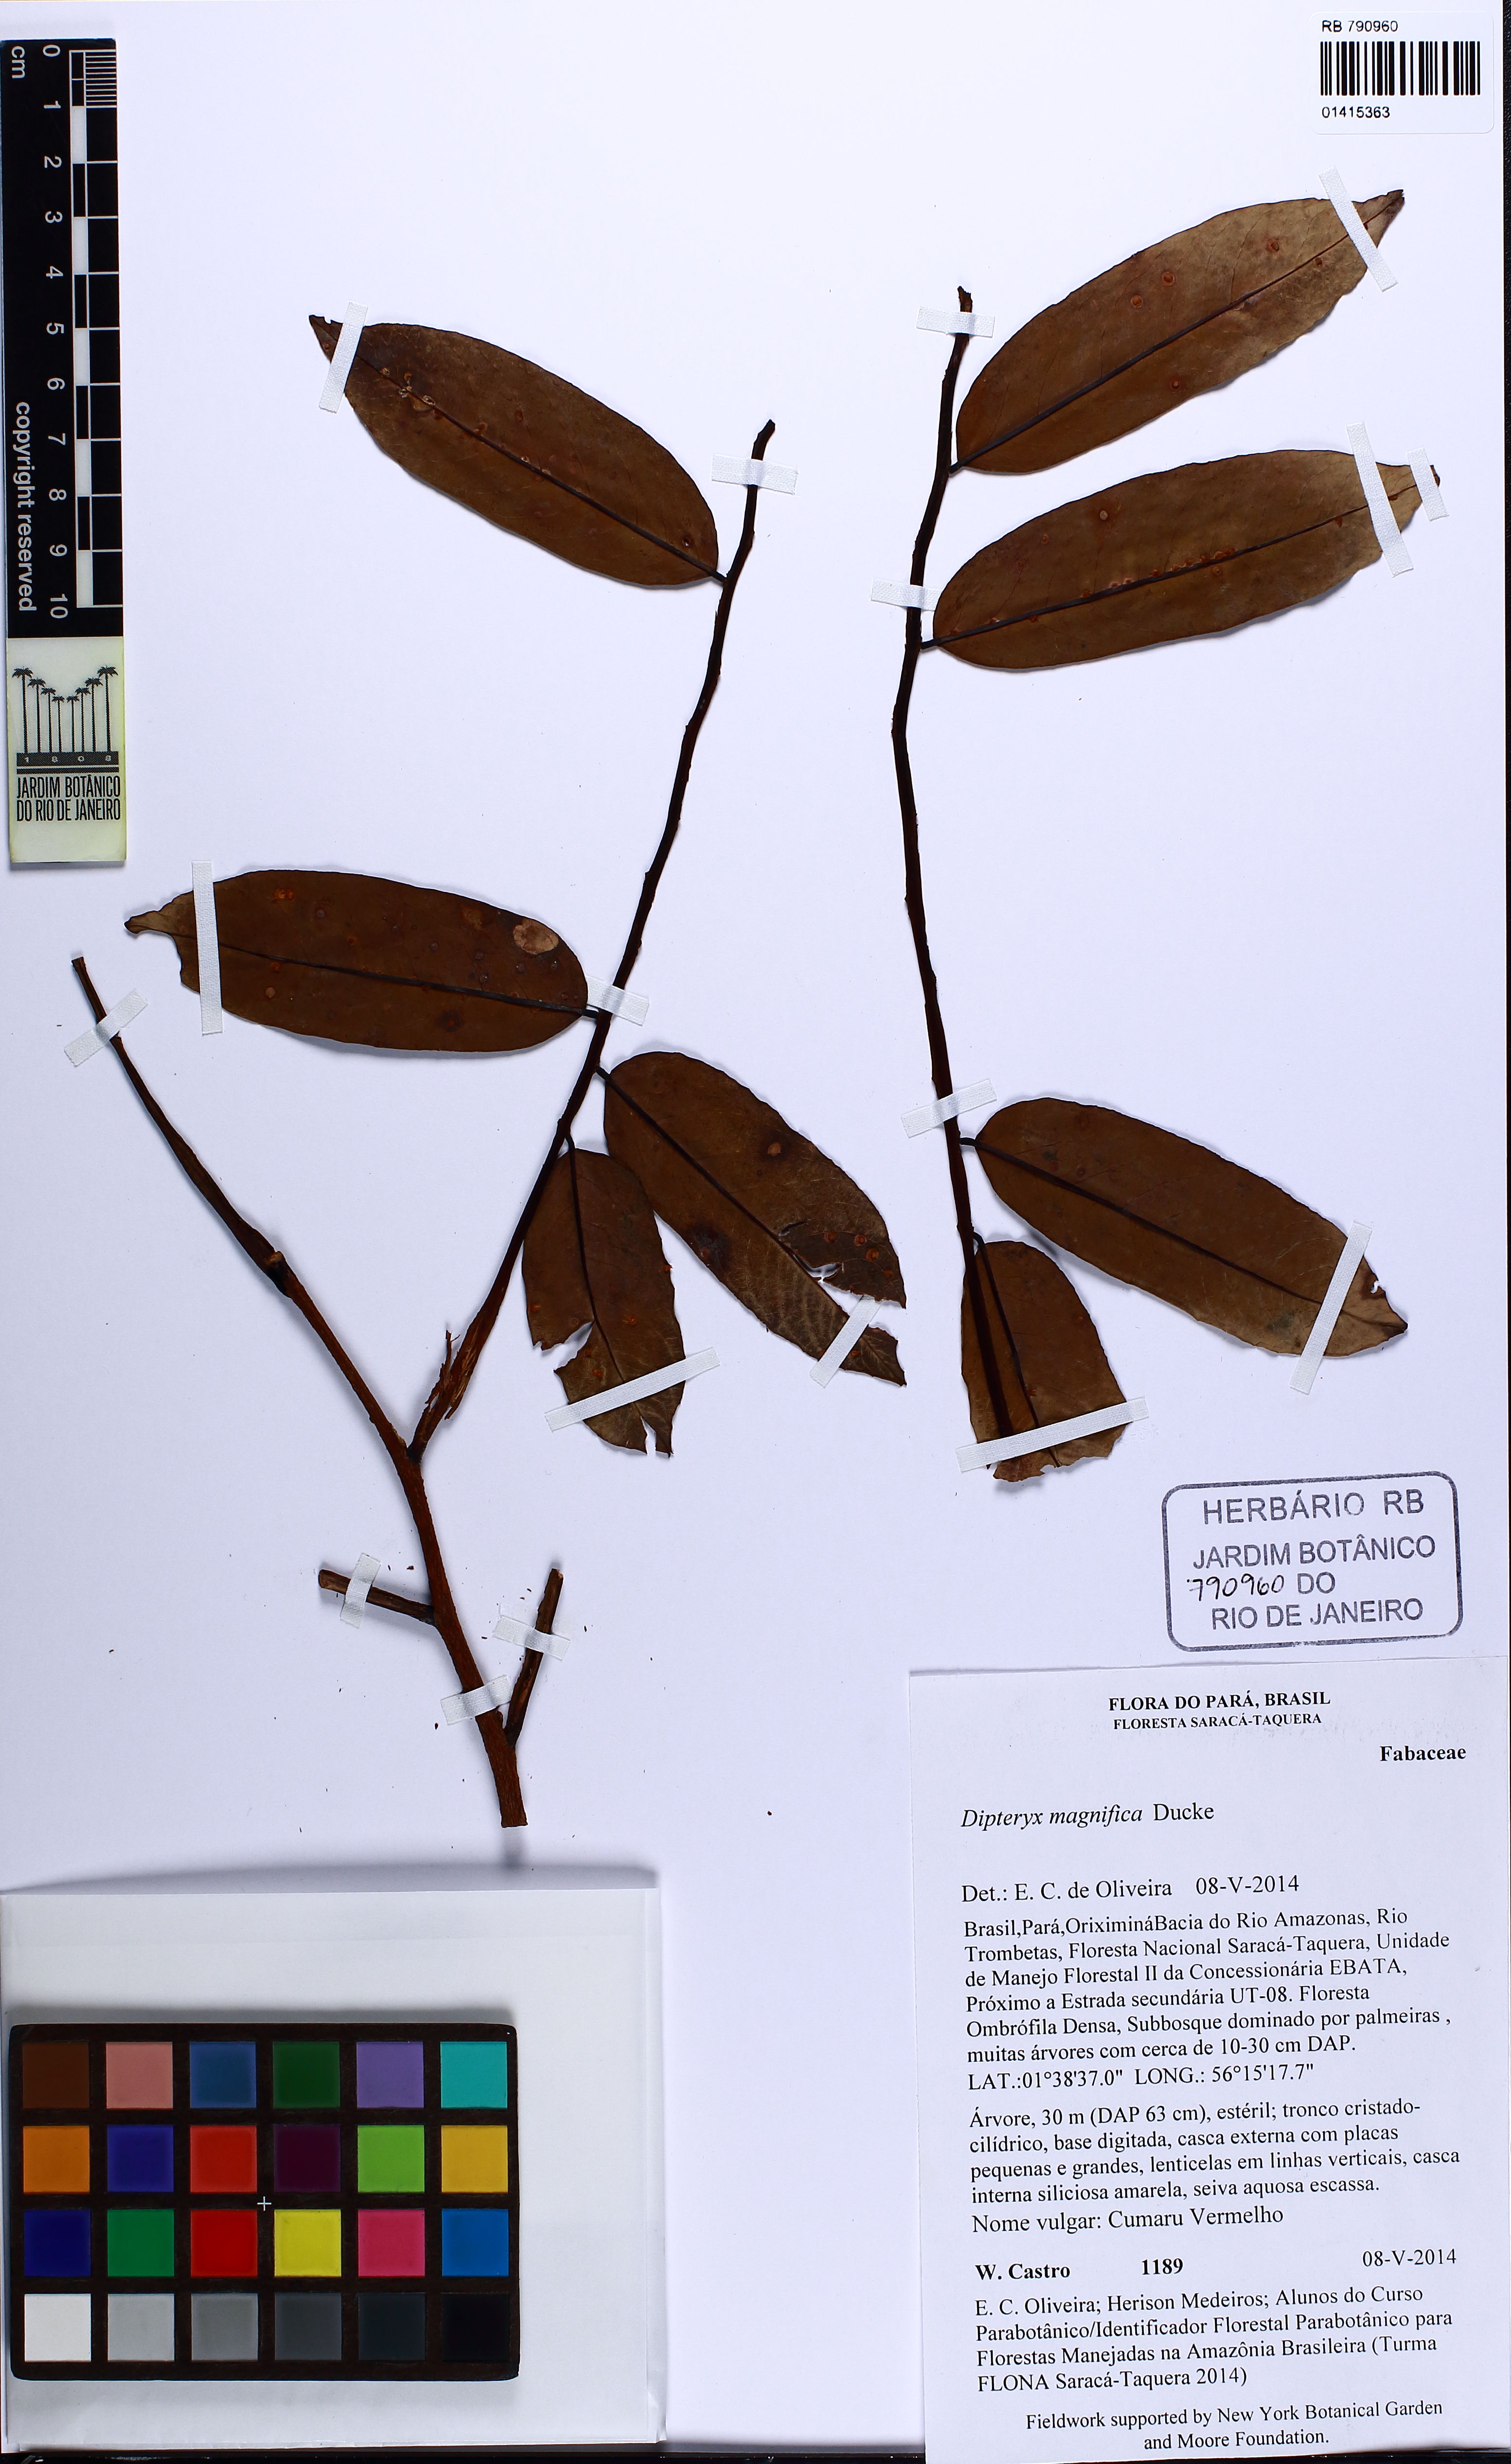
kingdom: Plantae
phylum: Tracheophyta
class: Magnoliopsida
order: Fabales
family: Fabaceae
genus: Dipteryx
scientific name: Dipteryx magnifica
